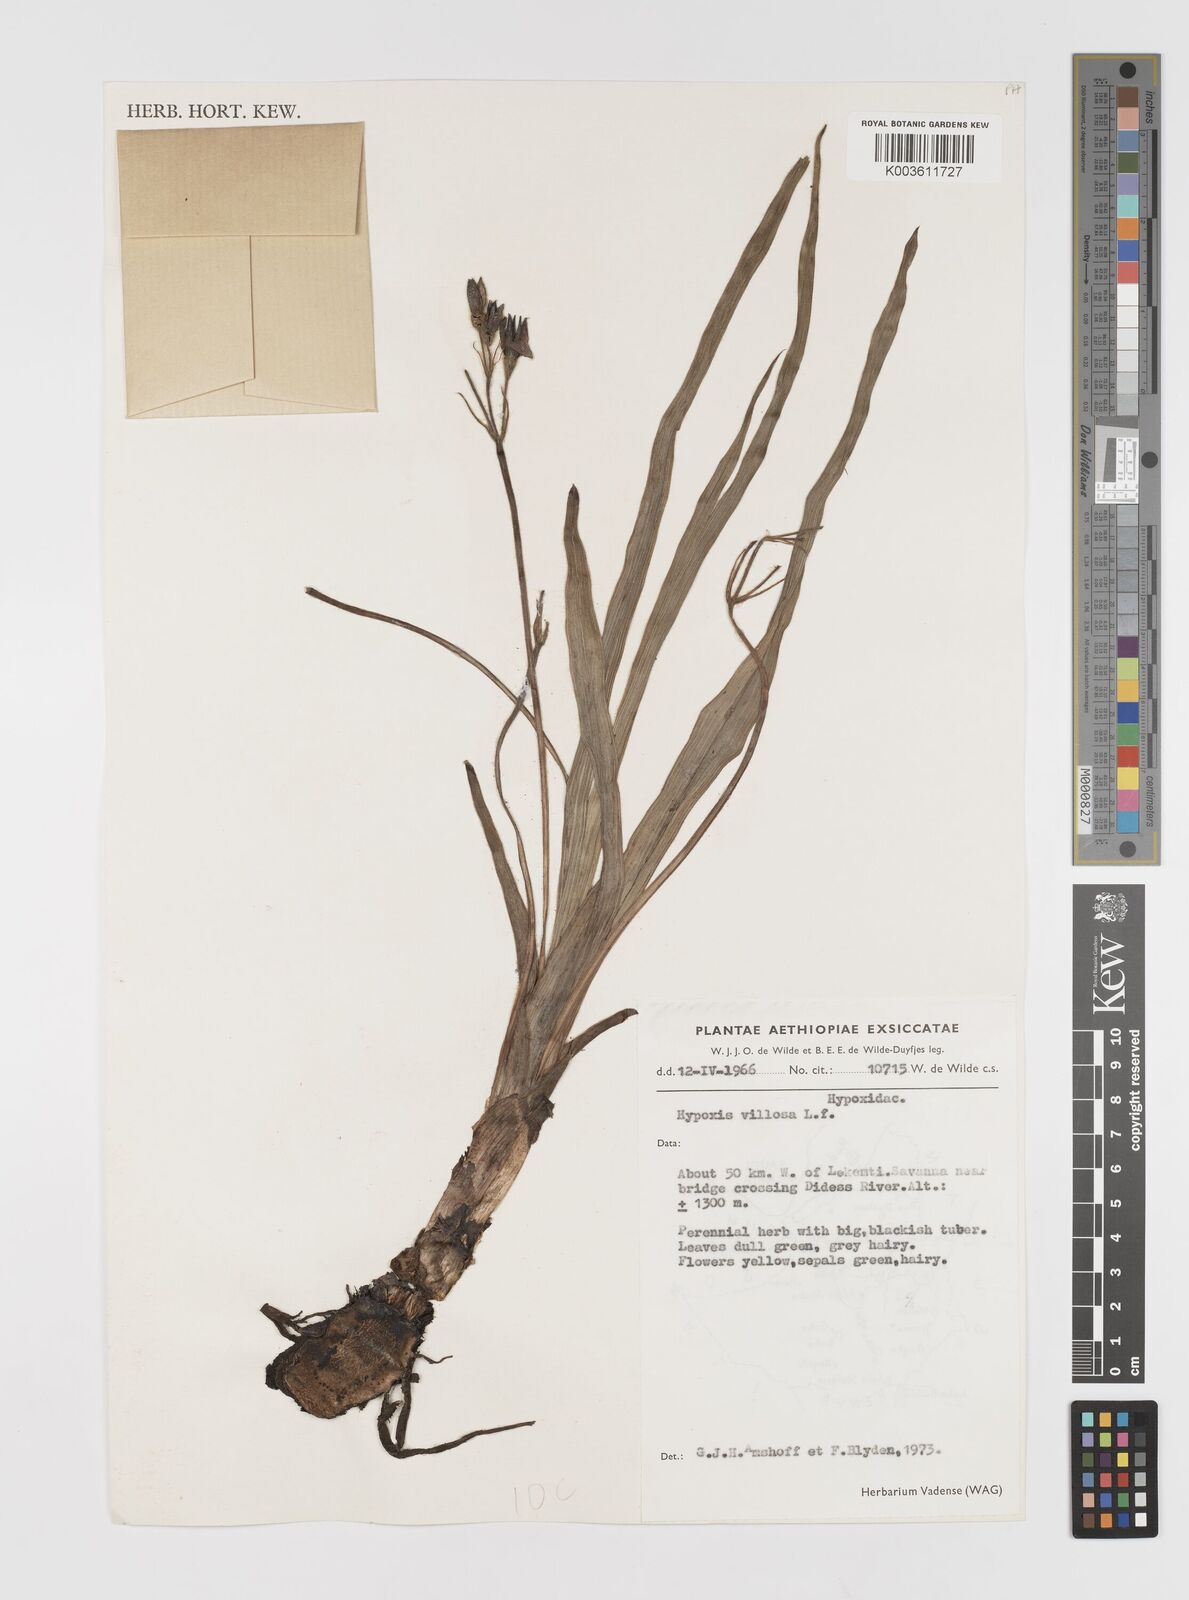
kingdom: Plantae
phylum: Tracheophyta
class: Liliopsida
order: Asparagales
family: Hypoxidaceae
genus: Hypoxis
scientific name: Hypoxis
